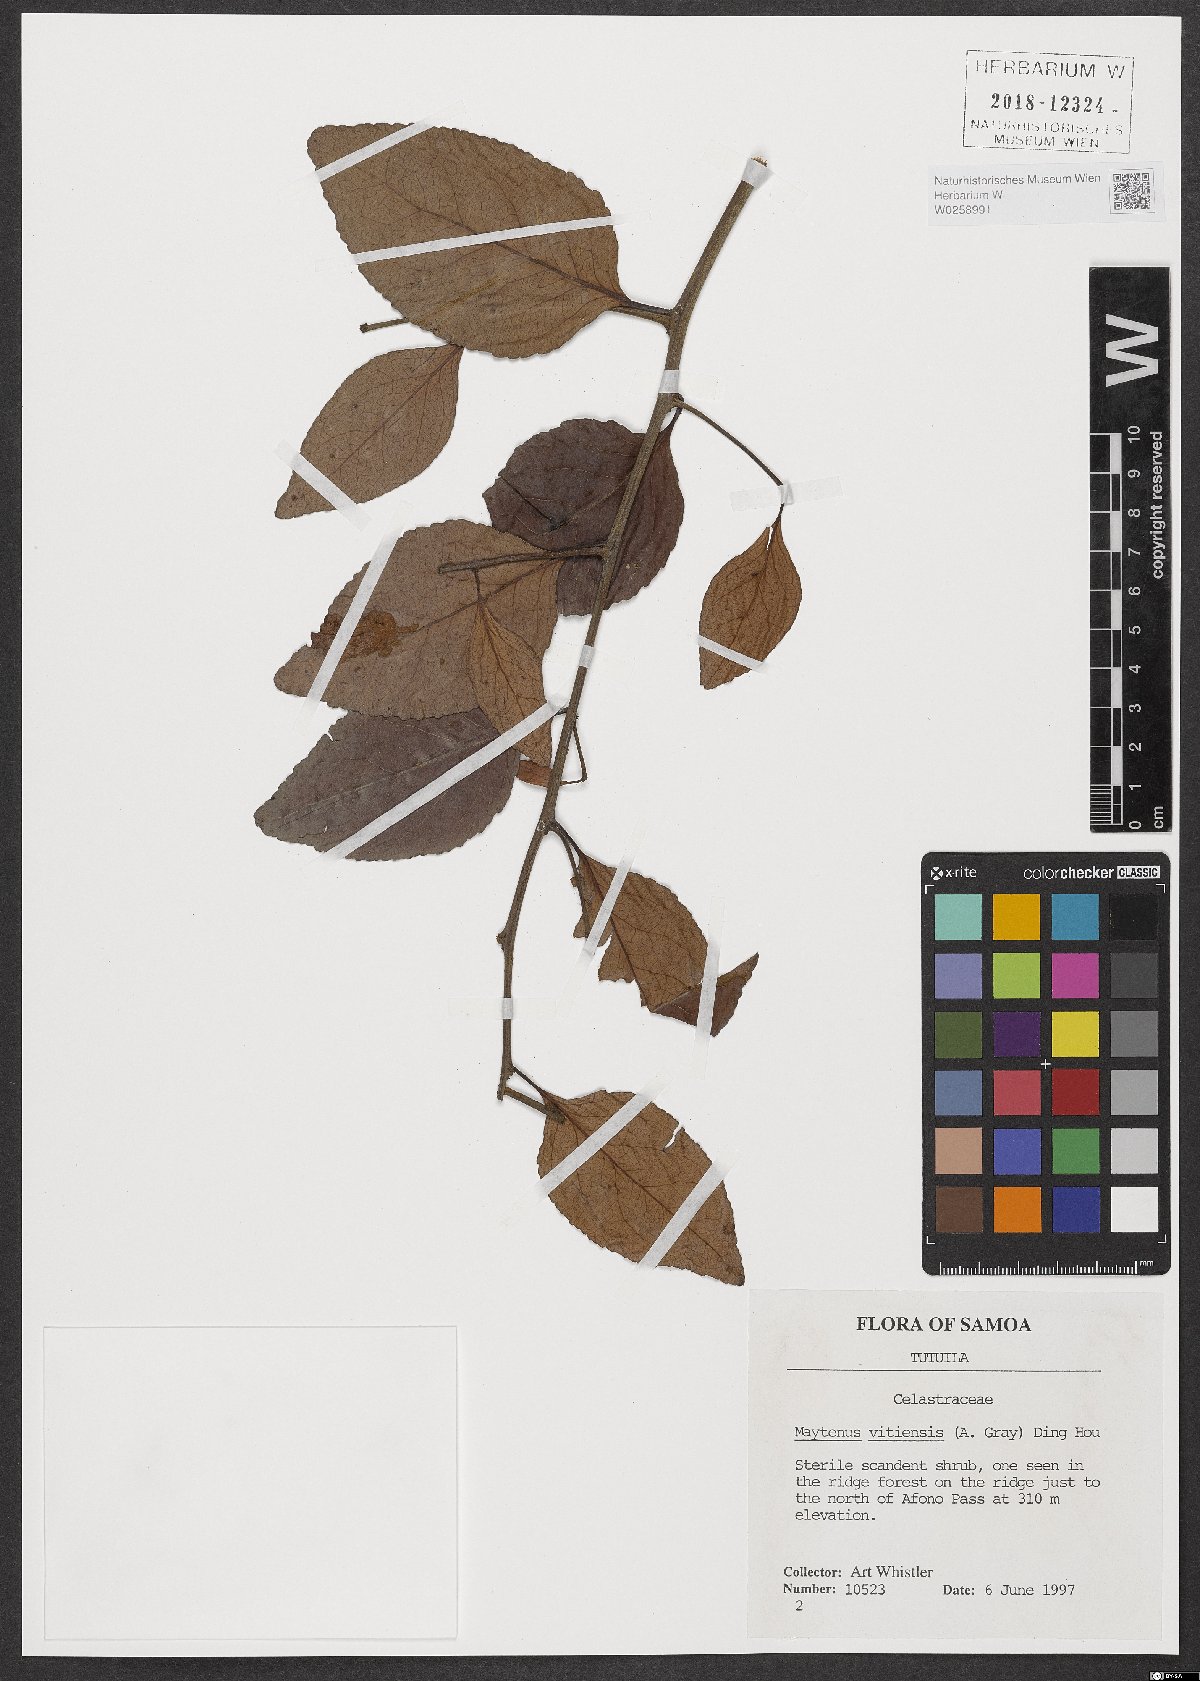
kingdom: Plantae
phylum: Tracheophyta
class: Magnoliopsida
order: Celastrales
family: Celastraceae
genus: Gymnosporia
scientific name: Gymnosporia vitiensis
